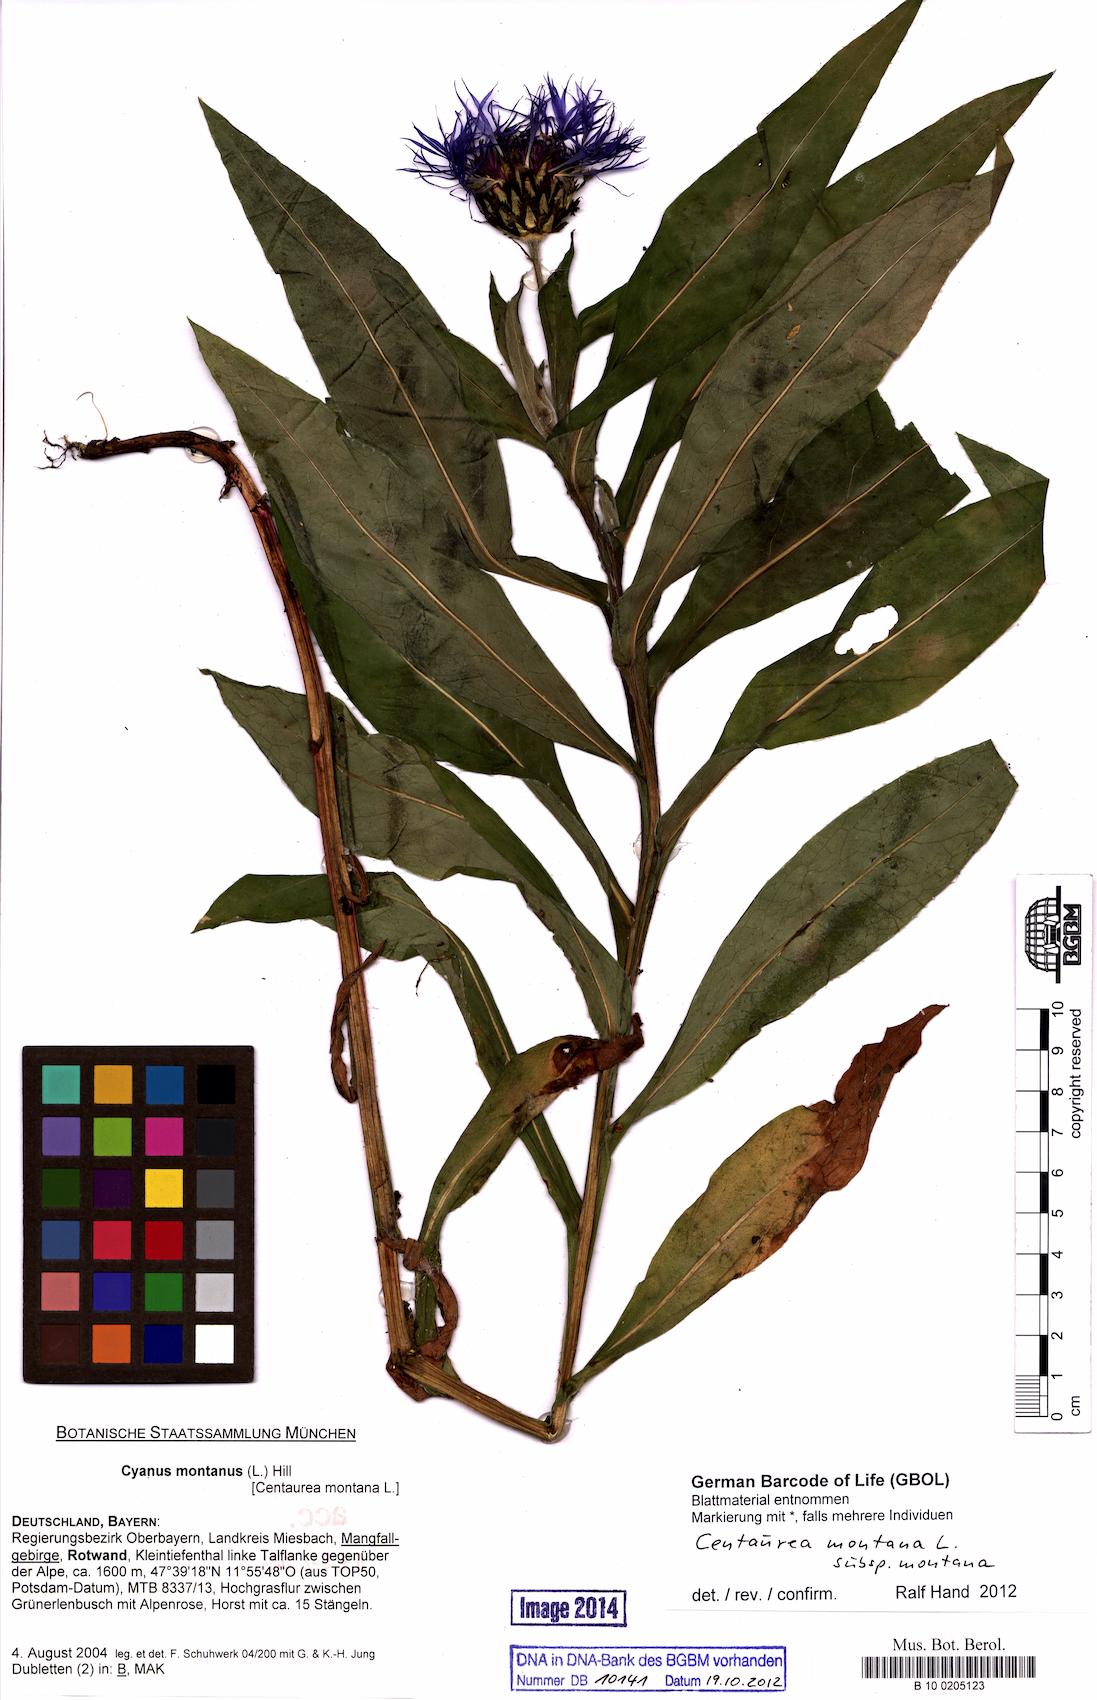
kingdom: Plantae
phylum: Tracheophyta
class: Magnoliopsida
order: Asterales
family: Asteraceae
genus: Centaurea
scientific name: Centaurea montana
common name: Perennial cornflower
